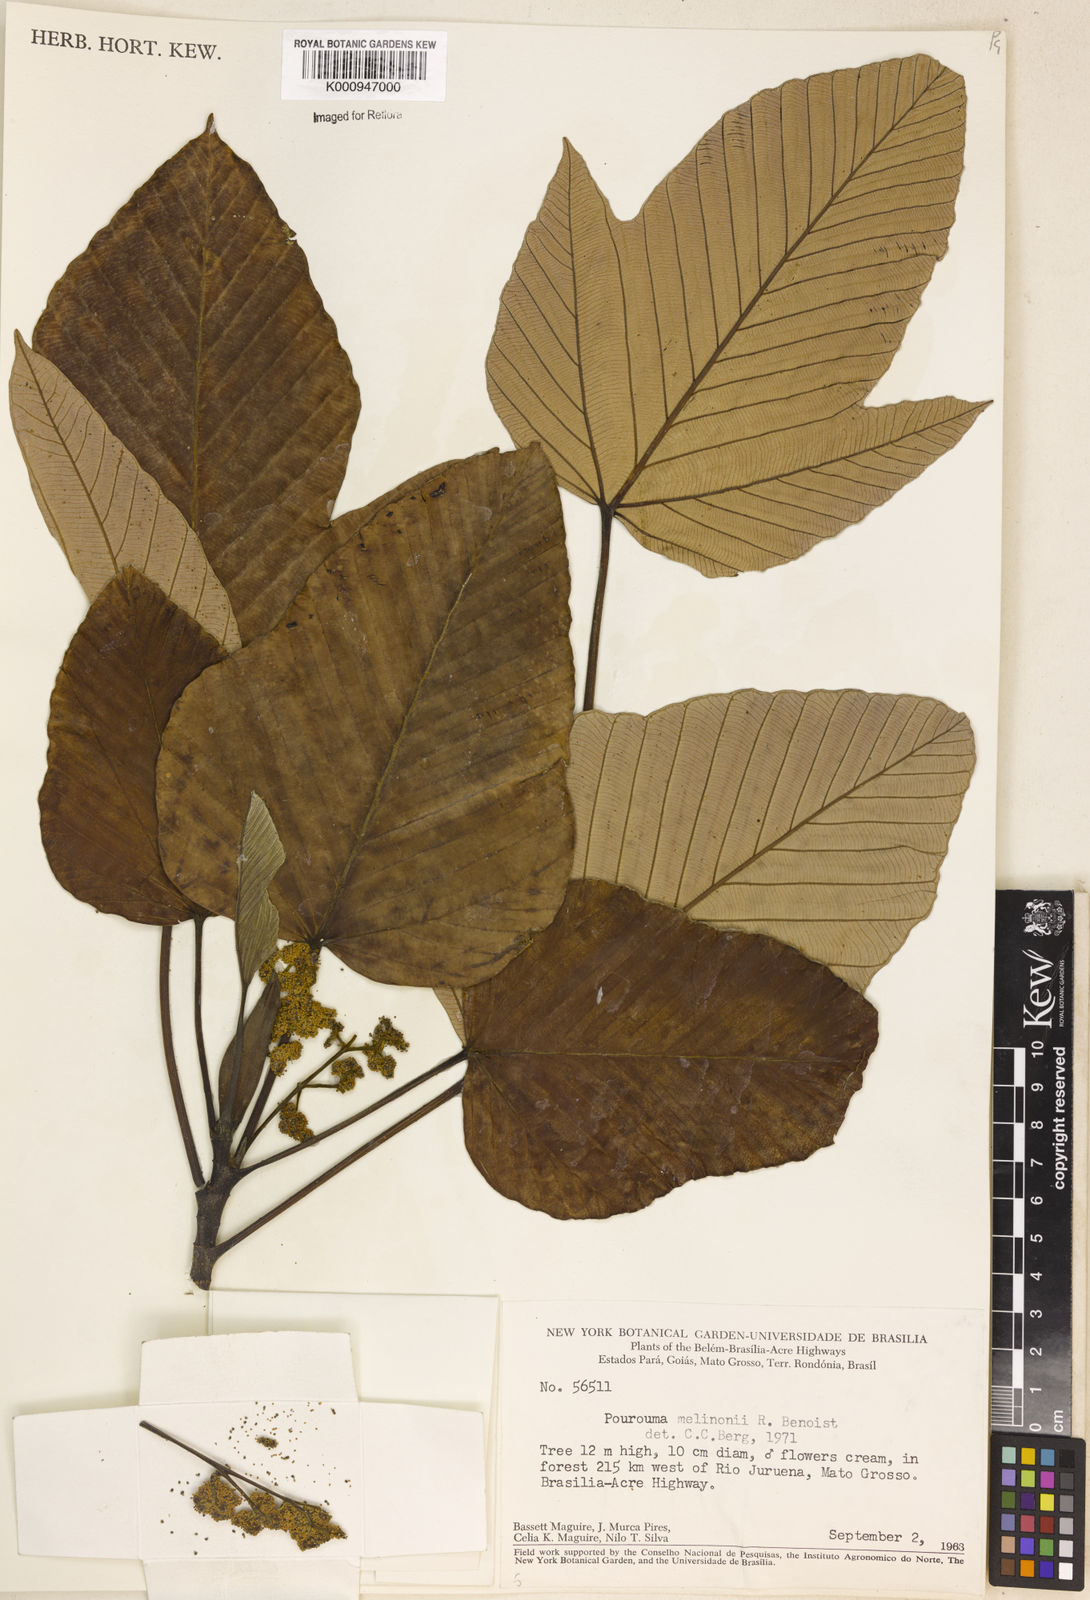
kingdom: Plantae
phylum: Tracheophyta
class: Magnoliopsida
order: Rosales
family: Urticaceae
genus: Pourouma
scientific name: Pourouma melinonii
